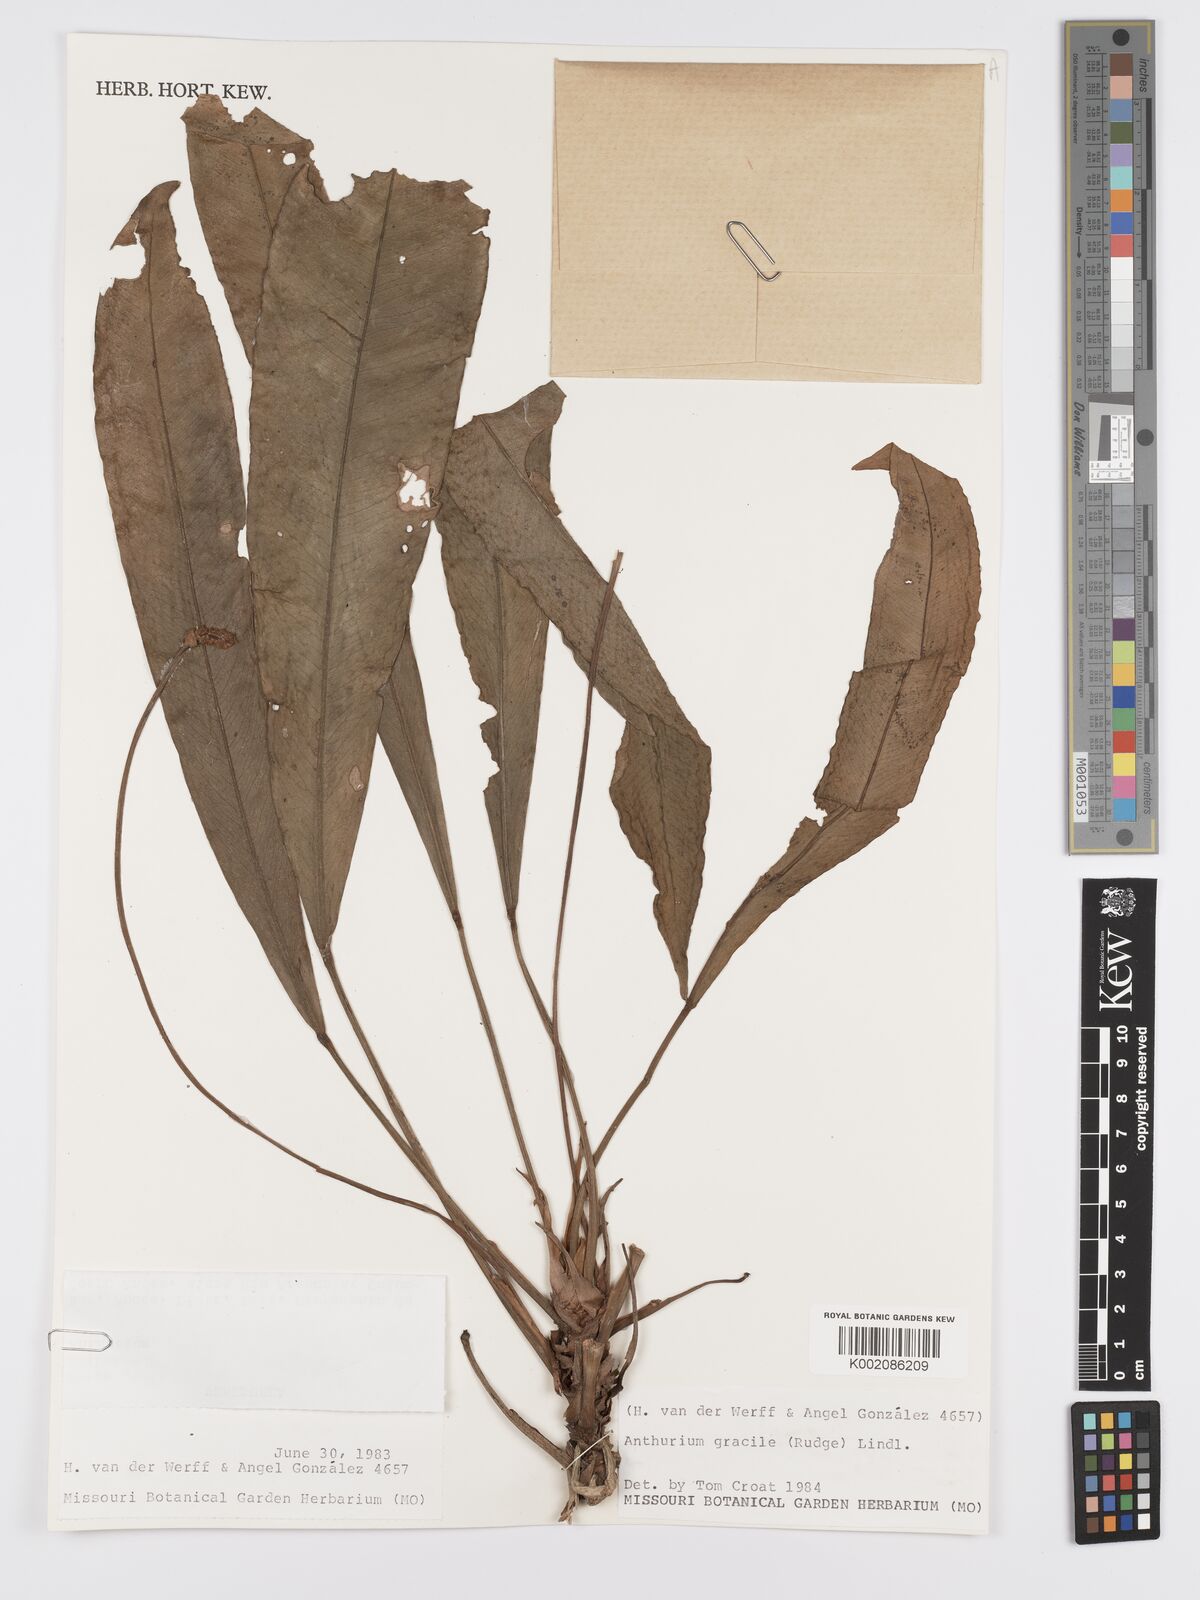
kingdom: Plantae
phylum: Tracheophyta
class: Liliopsida
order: Alismatales
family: Araceae
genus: Anthurium
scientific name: Anthurium gracile
